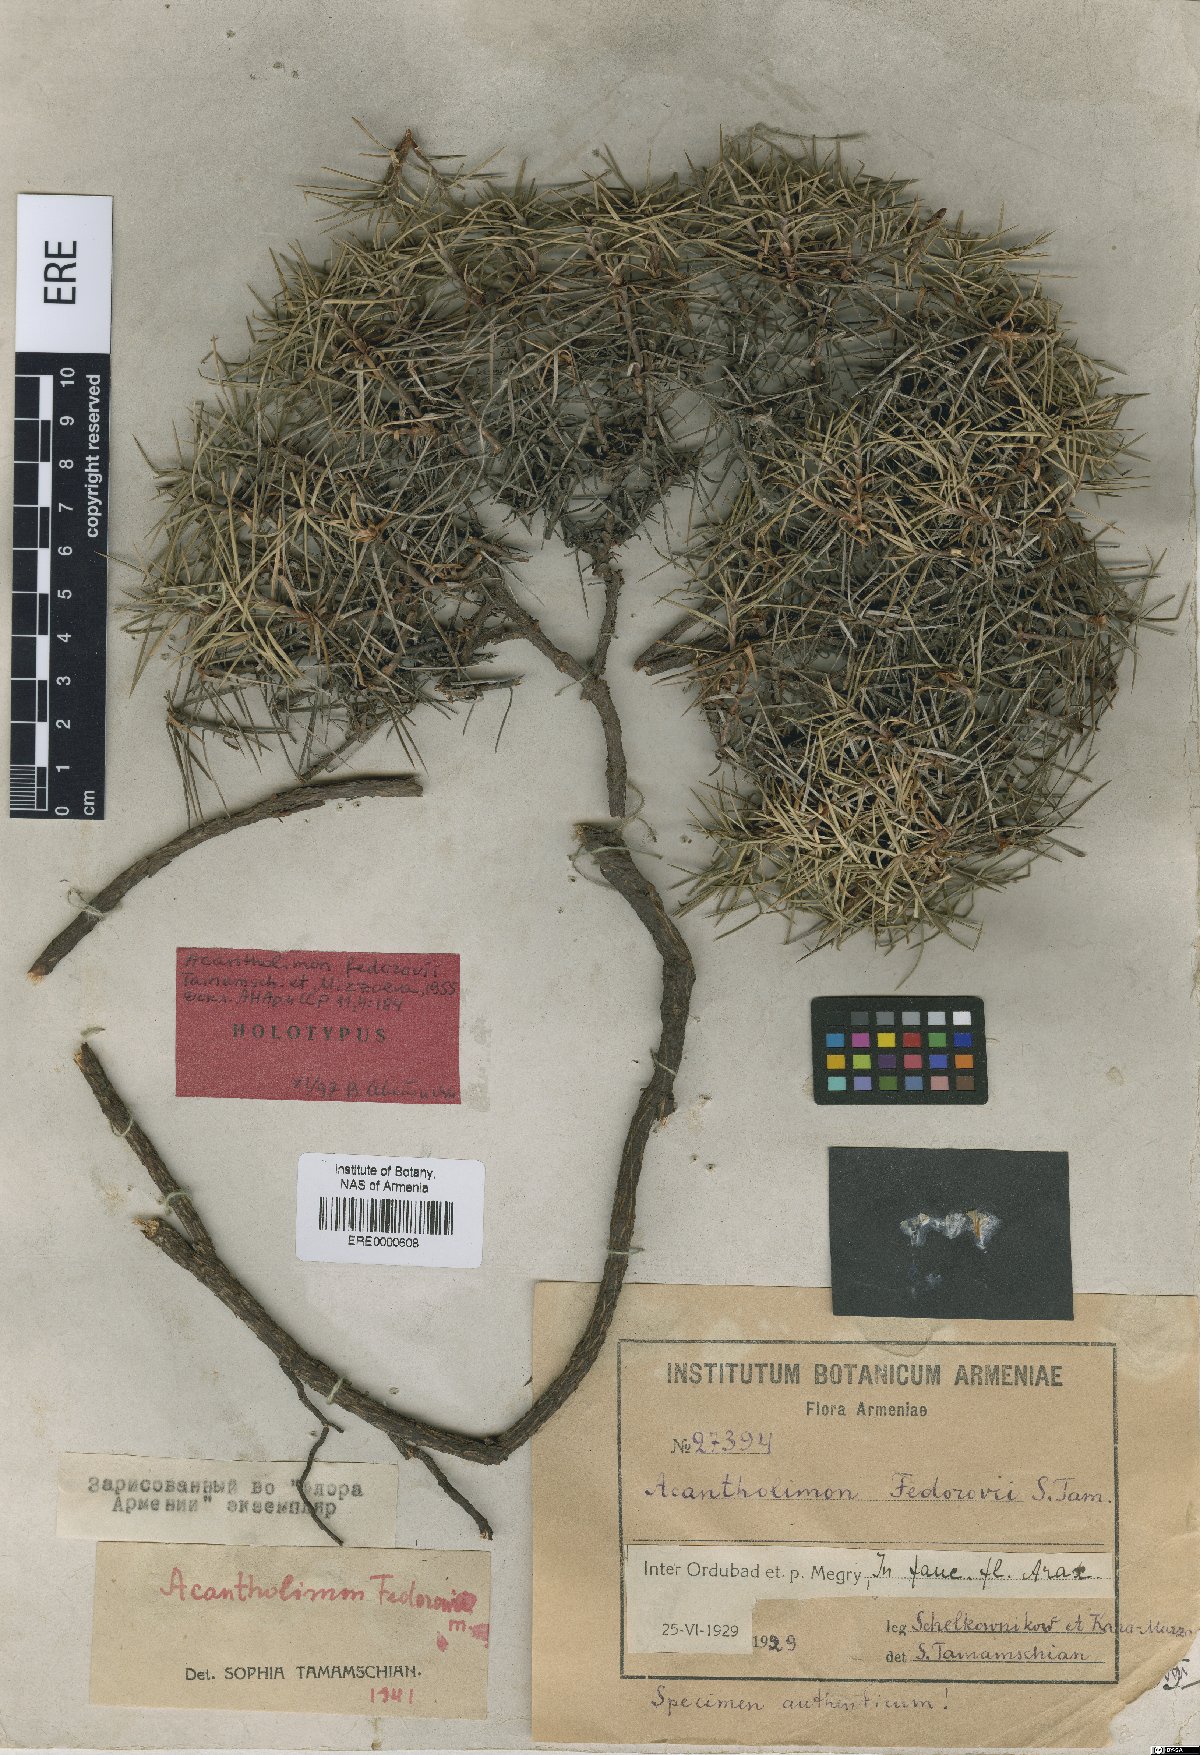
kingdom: Plantae
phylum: Tracheophyta
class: Magnoliopsida
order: Caryophyllales
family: Plumbaginaceae
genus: Acantholimon
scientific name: Acantholimon fedorovii
